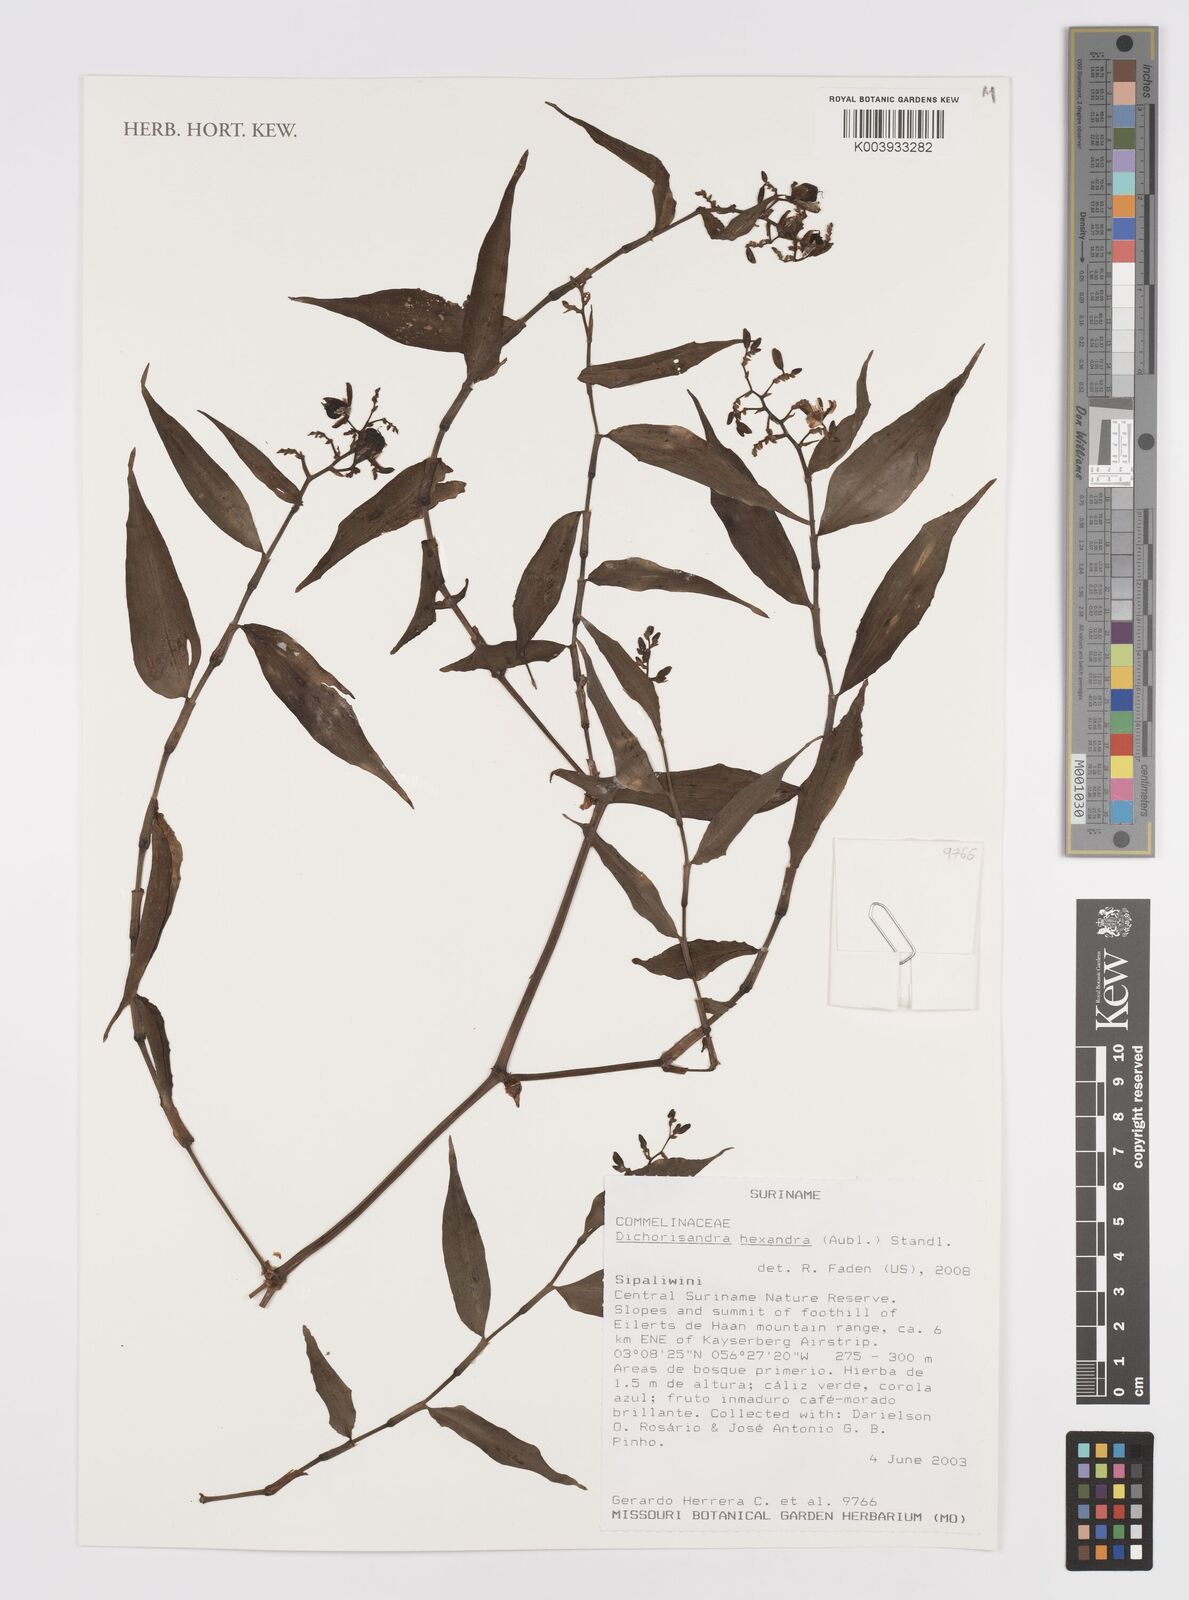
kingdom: Plantae
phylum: Tracheophyta
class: Liliopsida
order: Commelinales
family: Commelinaceae
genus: Dichorisandra
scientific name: Dichorisandra hexandra
